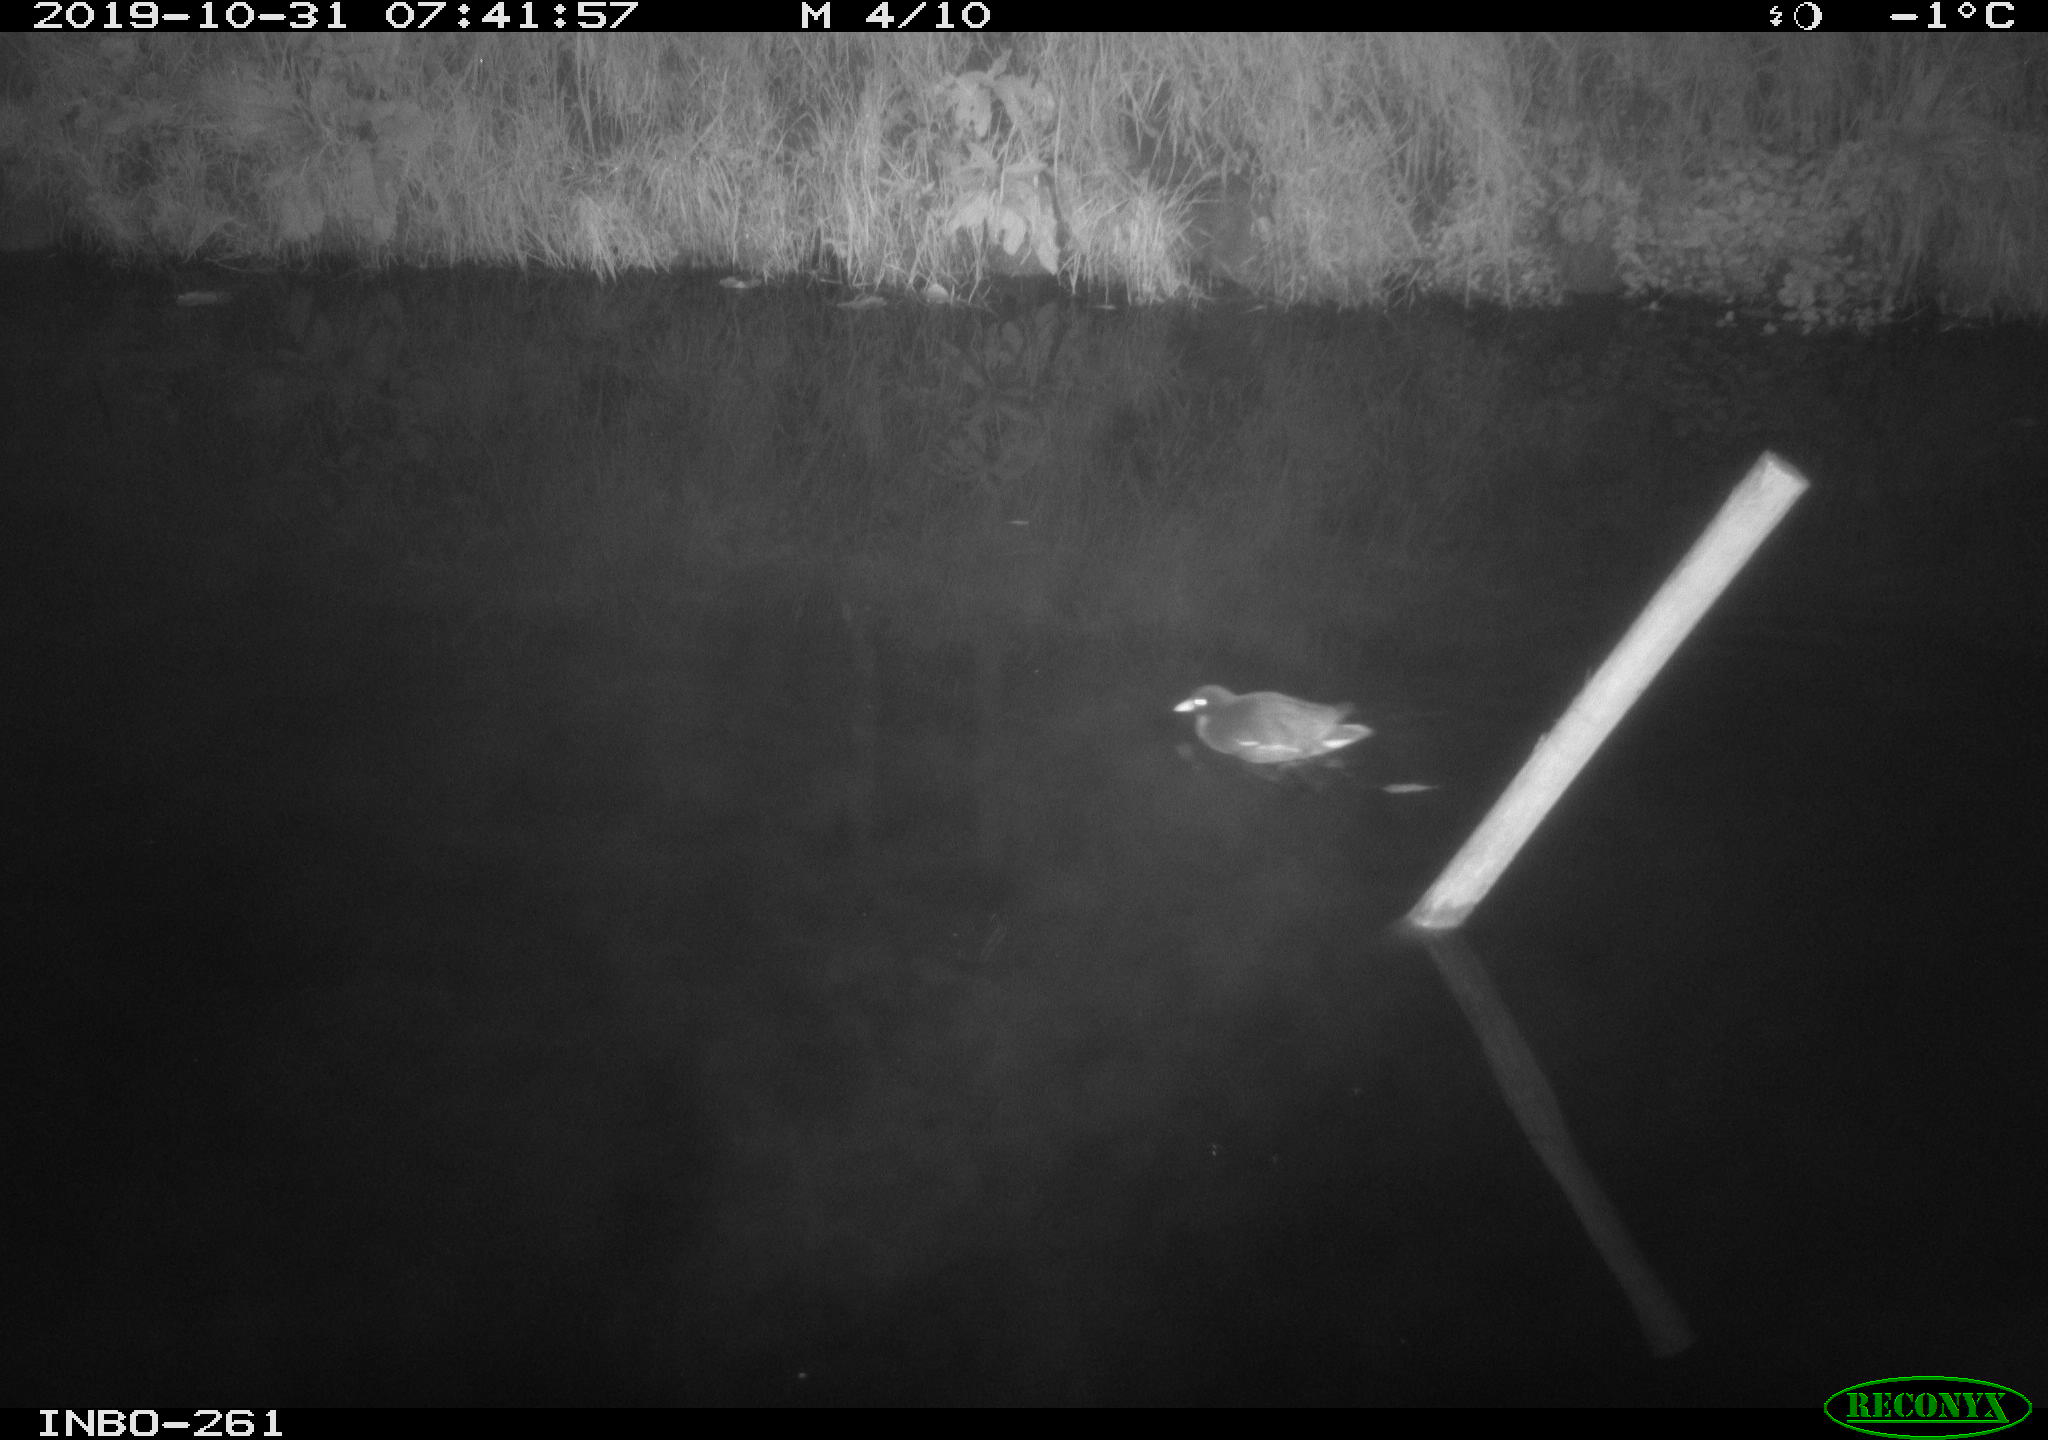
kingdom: Animalia
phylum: Chordata
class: Aves
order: Gruiformes
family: Rallidae
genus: Gallinula
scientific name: Gallinula chloropus
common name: Common moorhen
